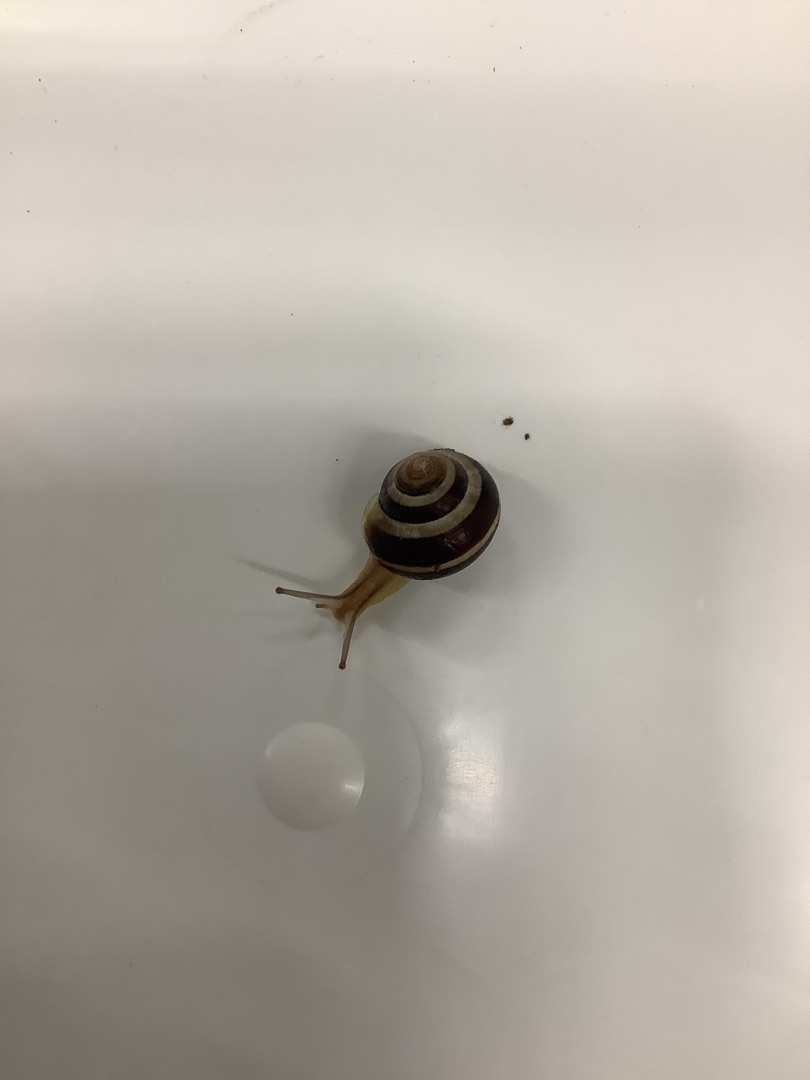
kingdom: Animalia
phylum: Mollusca
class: Gastropoda
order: Stylommatophora
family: Helicidae
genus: Cepaea
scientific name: Cepaea hortensis
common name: Havesnegl
